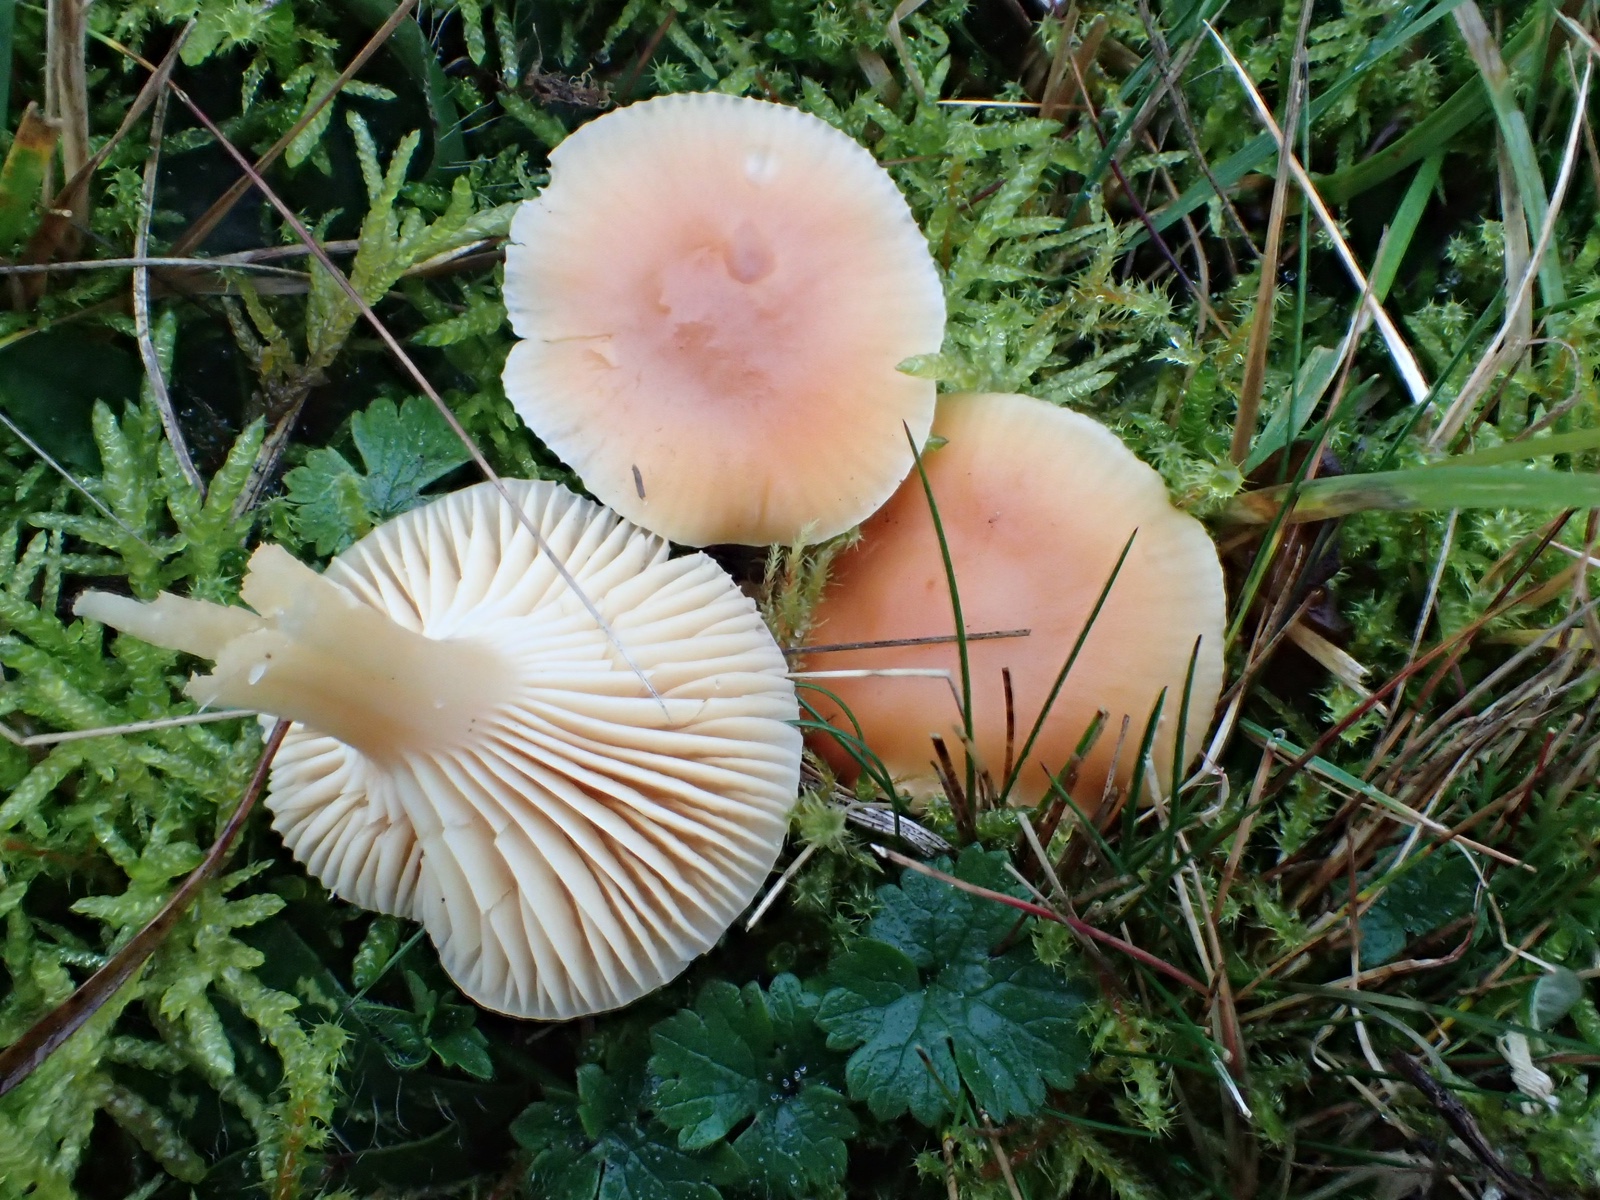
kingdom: Fungi
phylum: Basidiomycota
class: Agaricomycetes
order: Agaricales
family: Hygrophoraceae
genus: Cuphophyllus
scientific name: Cuphophyllus pratensis
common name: eng-vokshat
